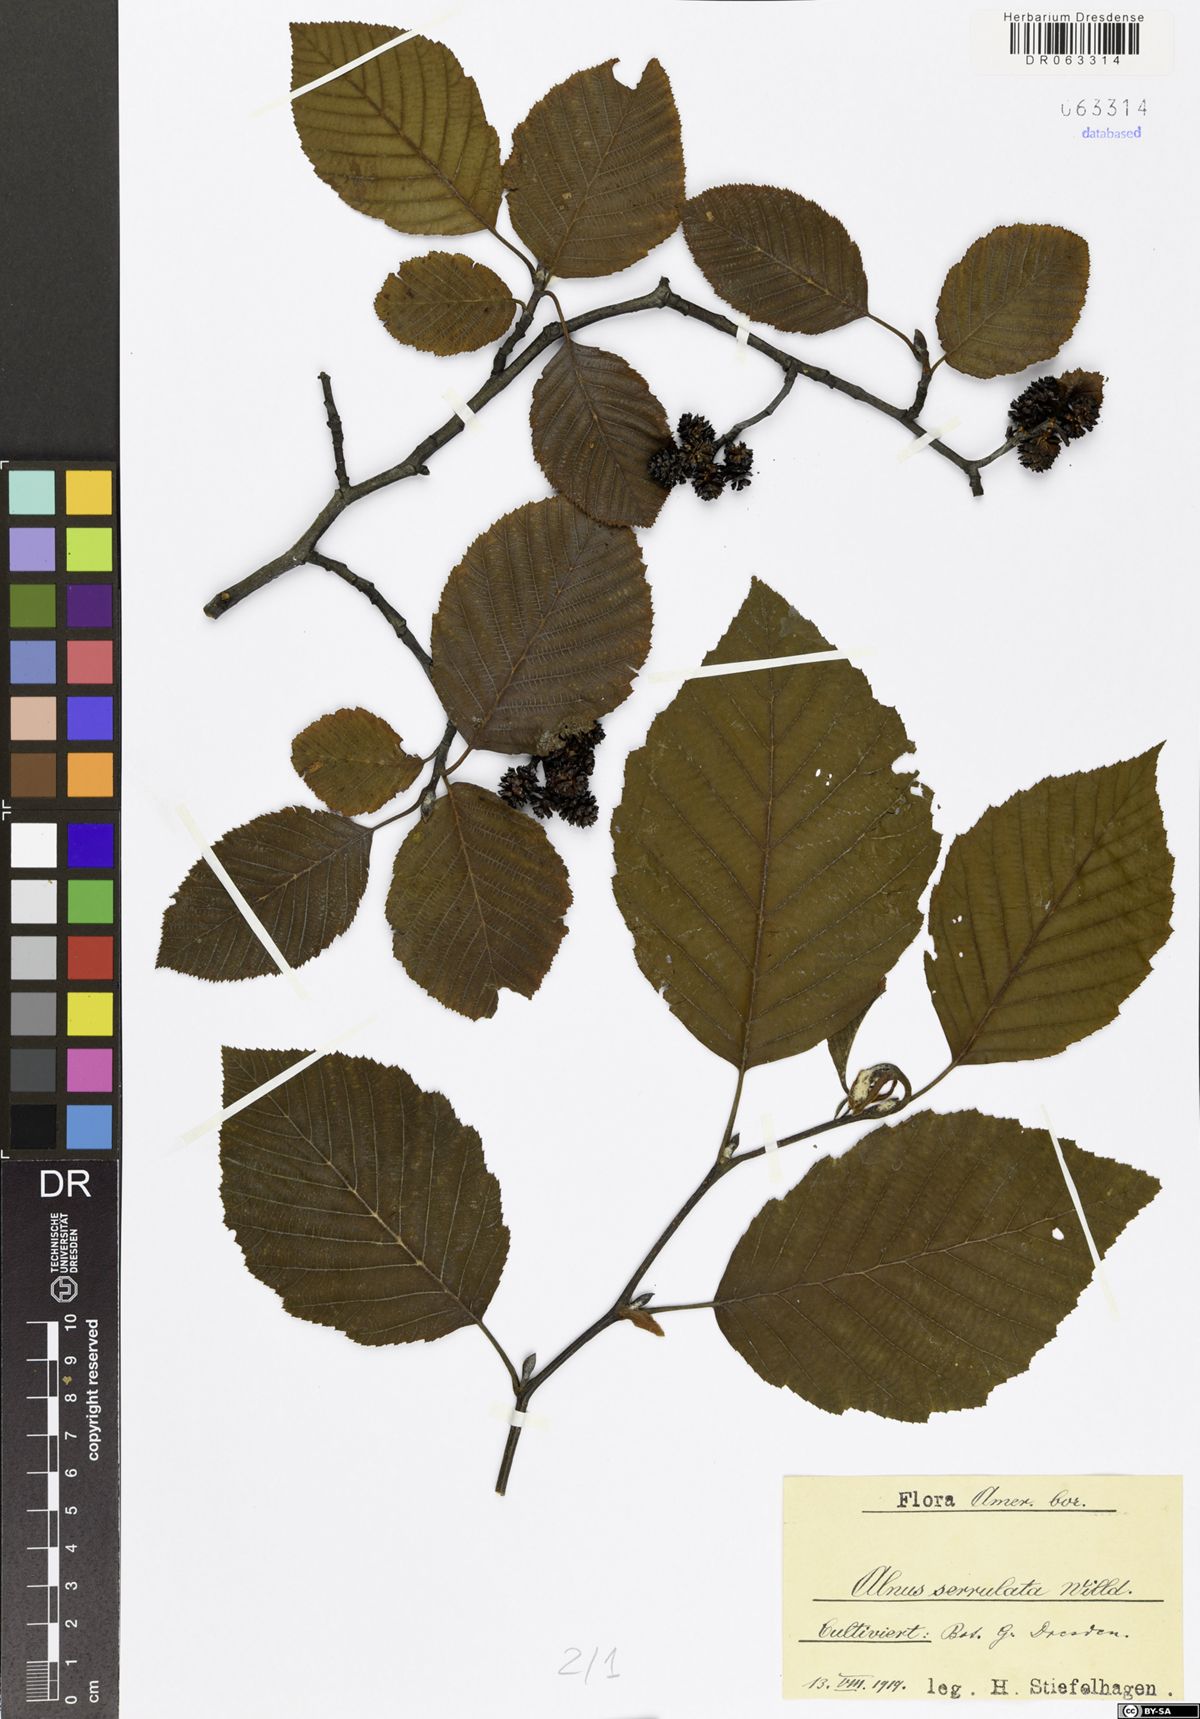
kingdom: Plantae
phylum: Tracheophyta
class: Magnoliopsida
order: Fagales
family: Betulaceae
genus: Alnus
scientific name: Alnus serrulata
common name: Hazel alder
